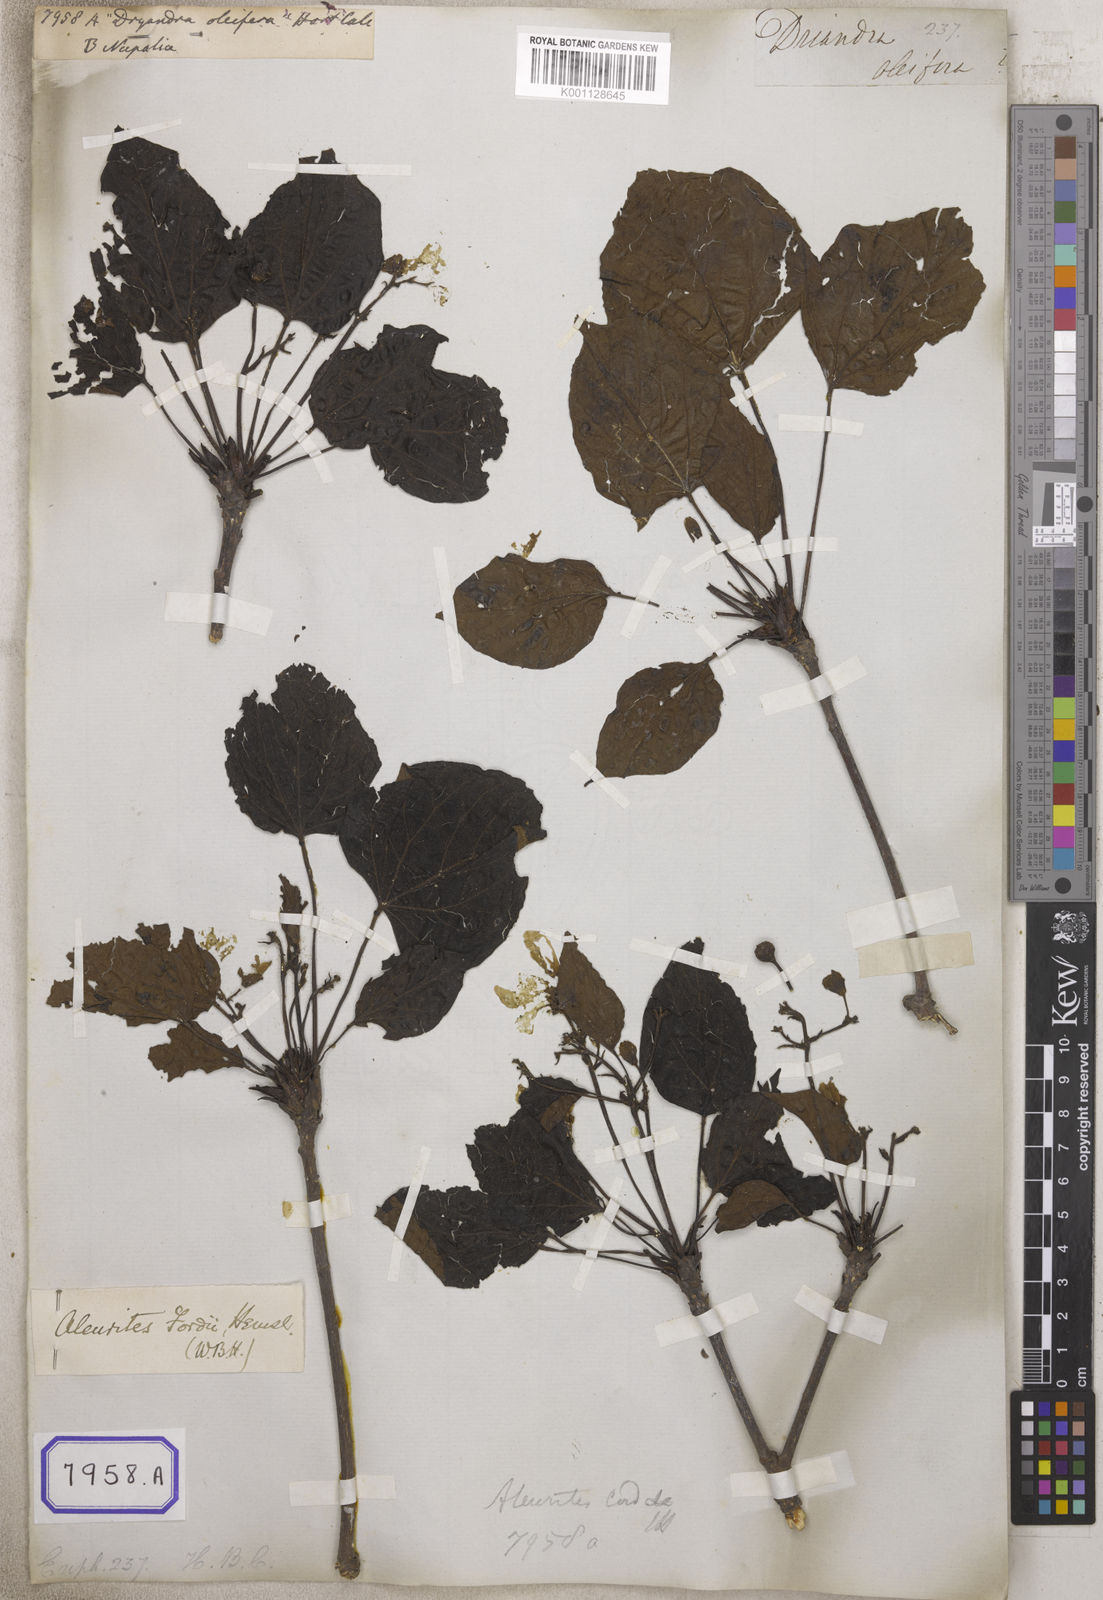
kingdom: Plantae
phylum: Tracheophyta
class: Magnoliopsida
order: Malpighiales
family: Euphorbiaceae
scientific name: Euphorbiaceae
